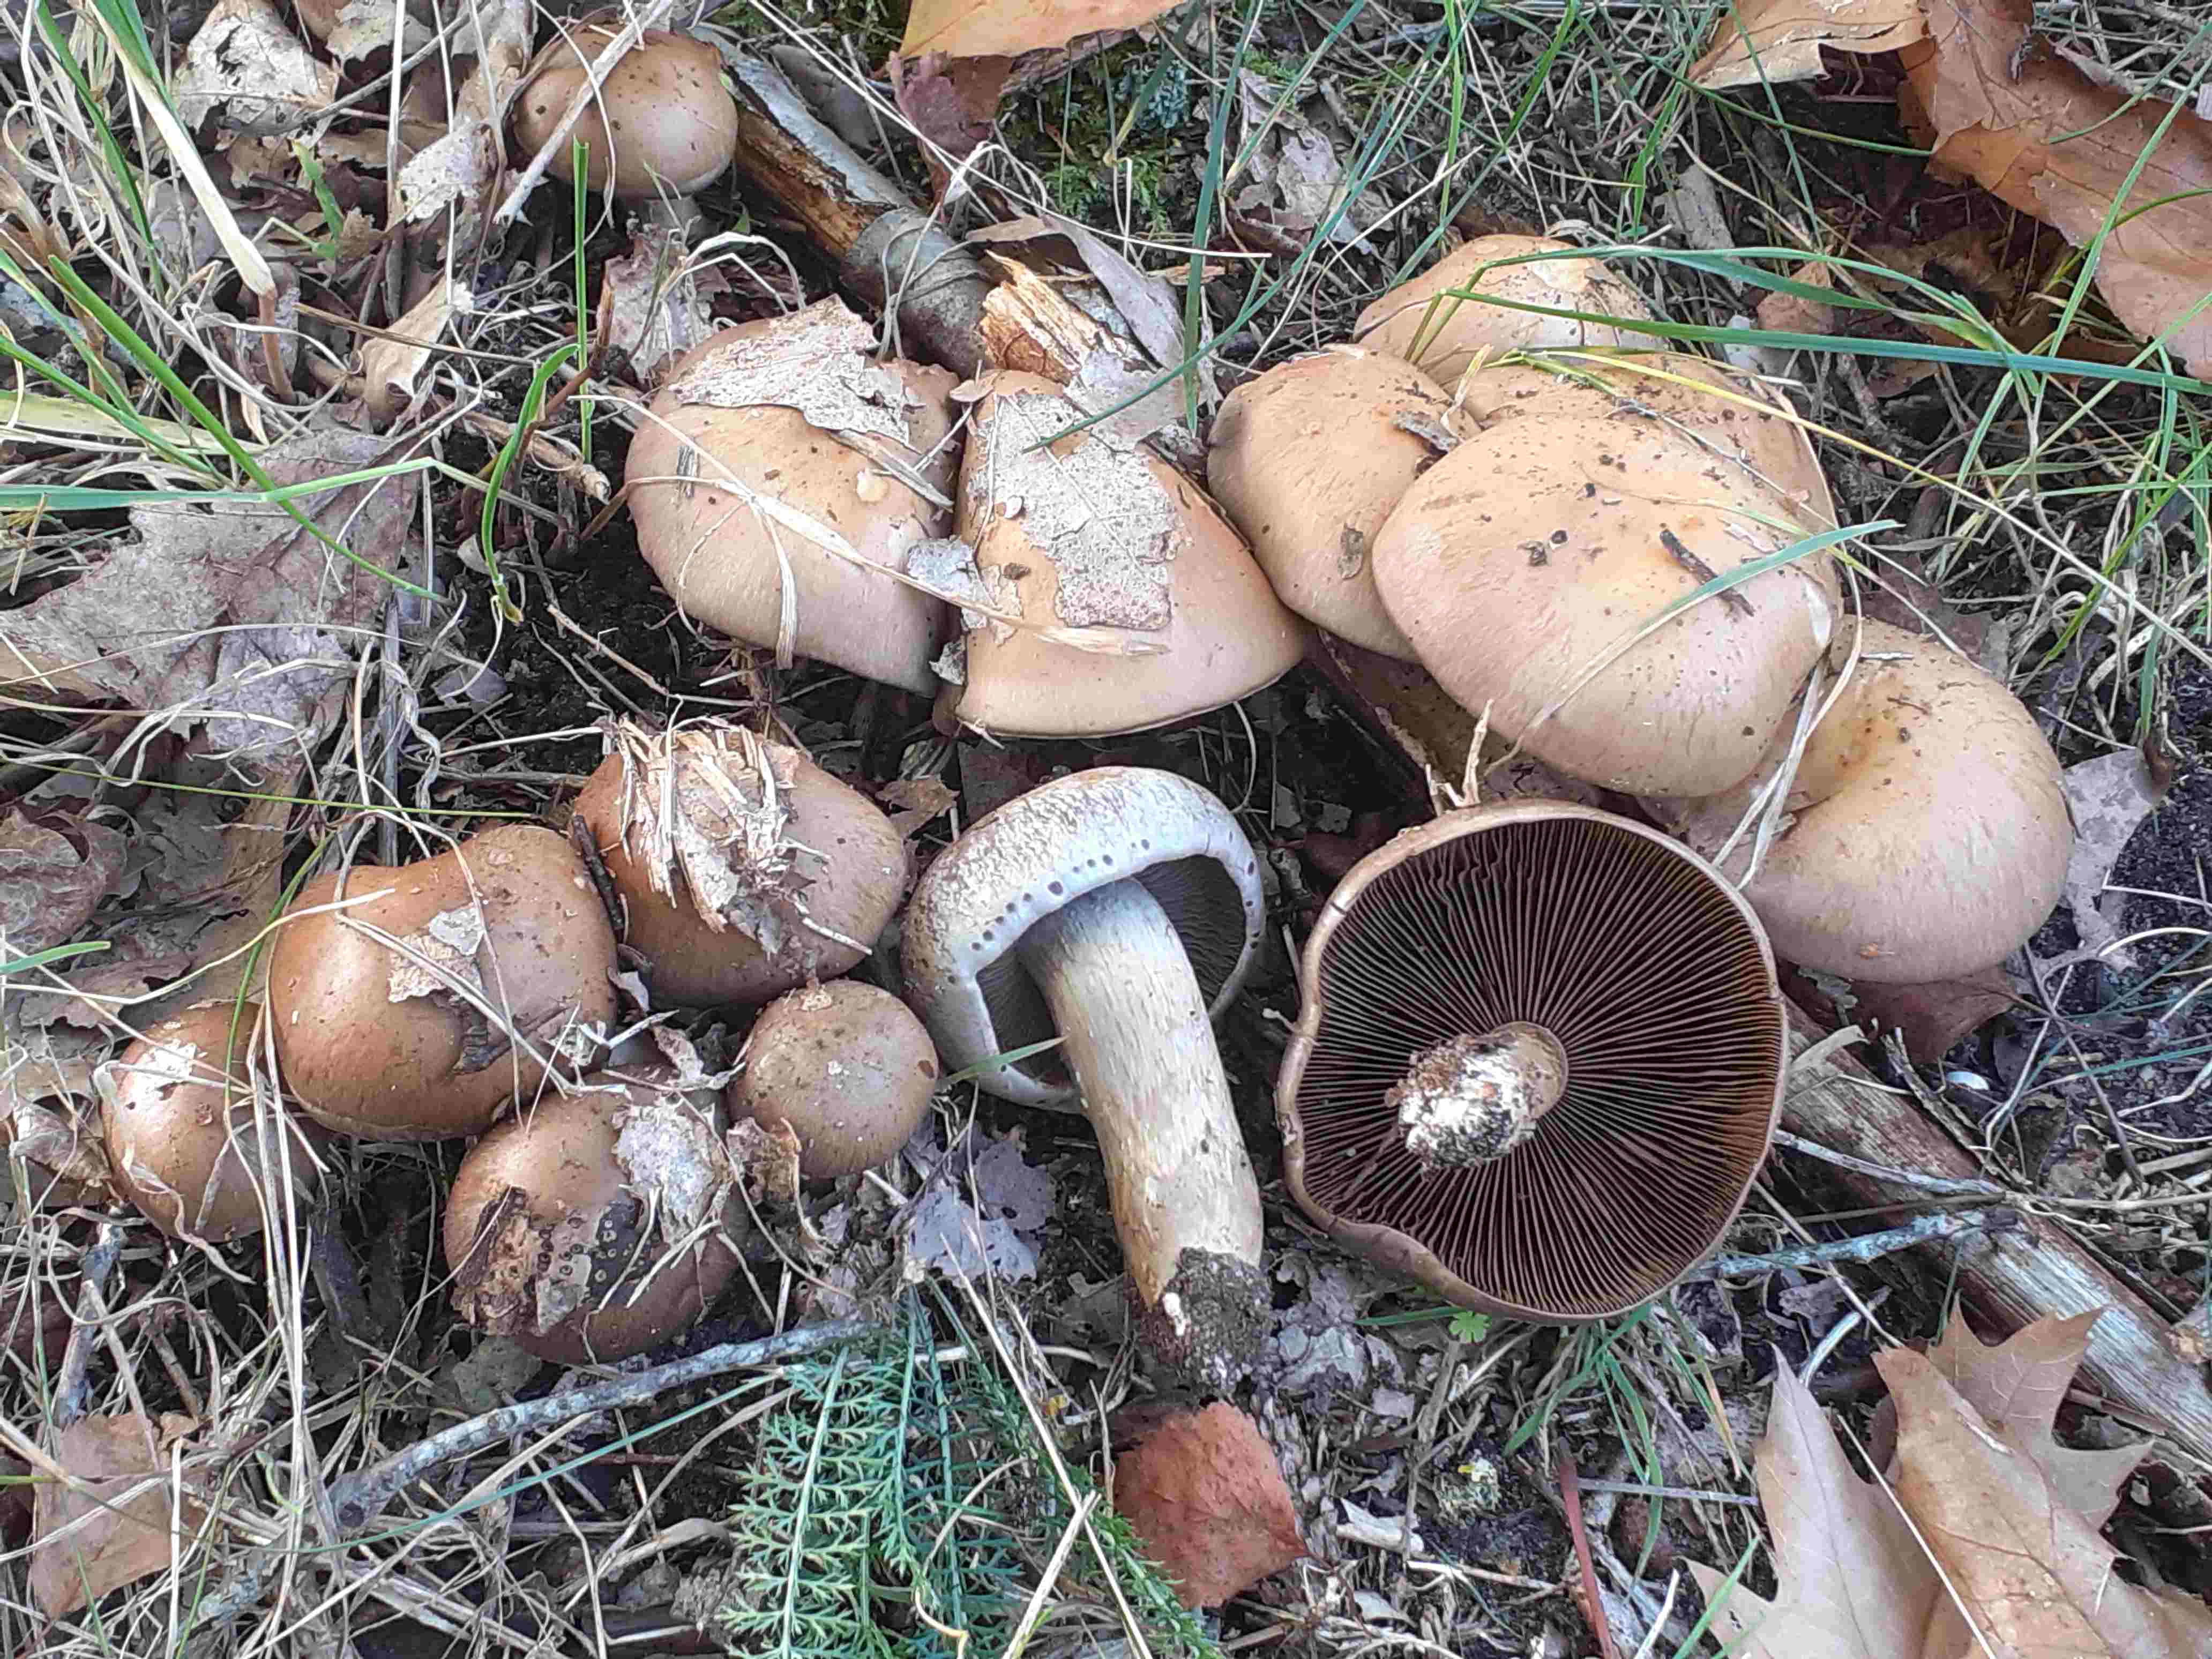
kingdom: Fungi
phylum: Basidiomycota
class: Agaricomycetes
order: Agaricales
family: Cortinariaceae
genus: Cortinarius
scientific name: Cortinarius
